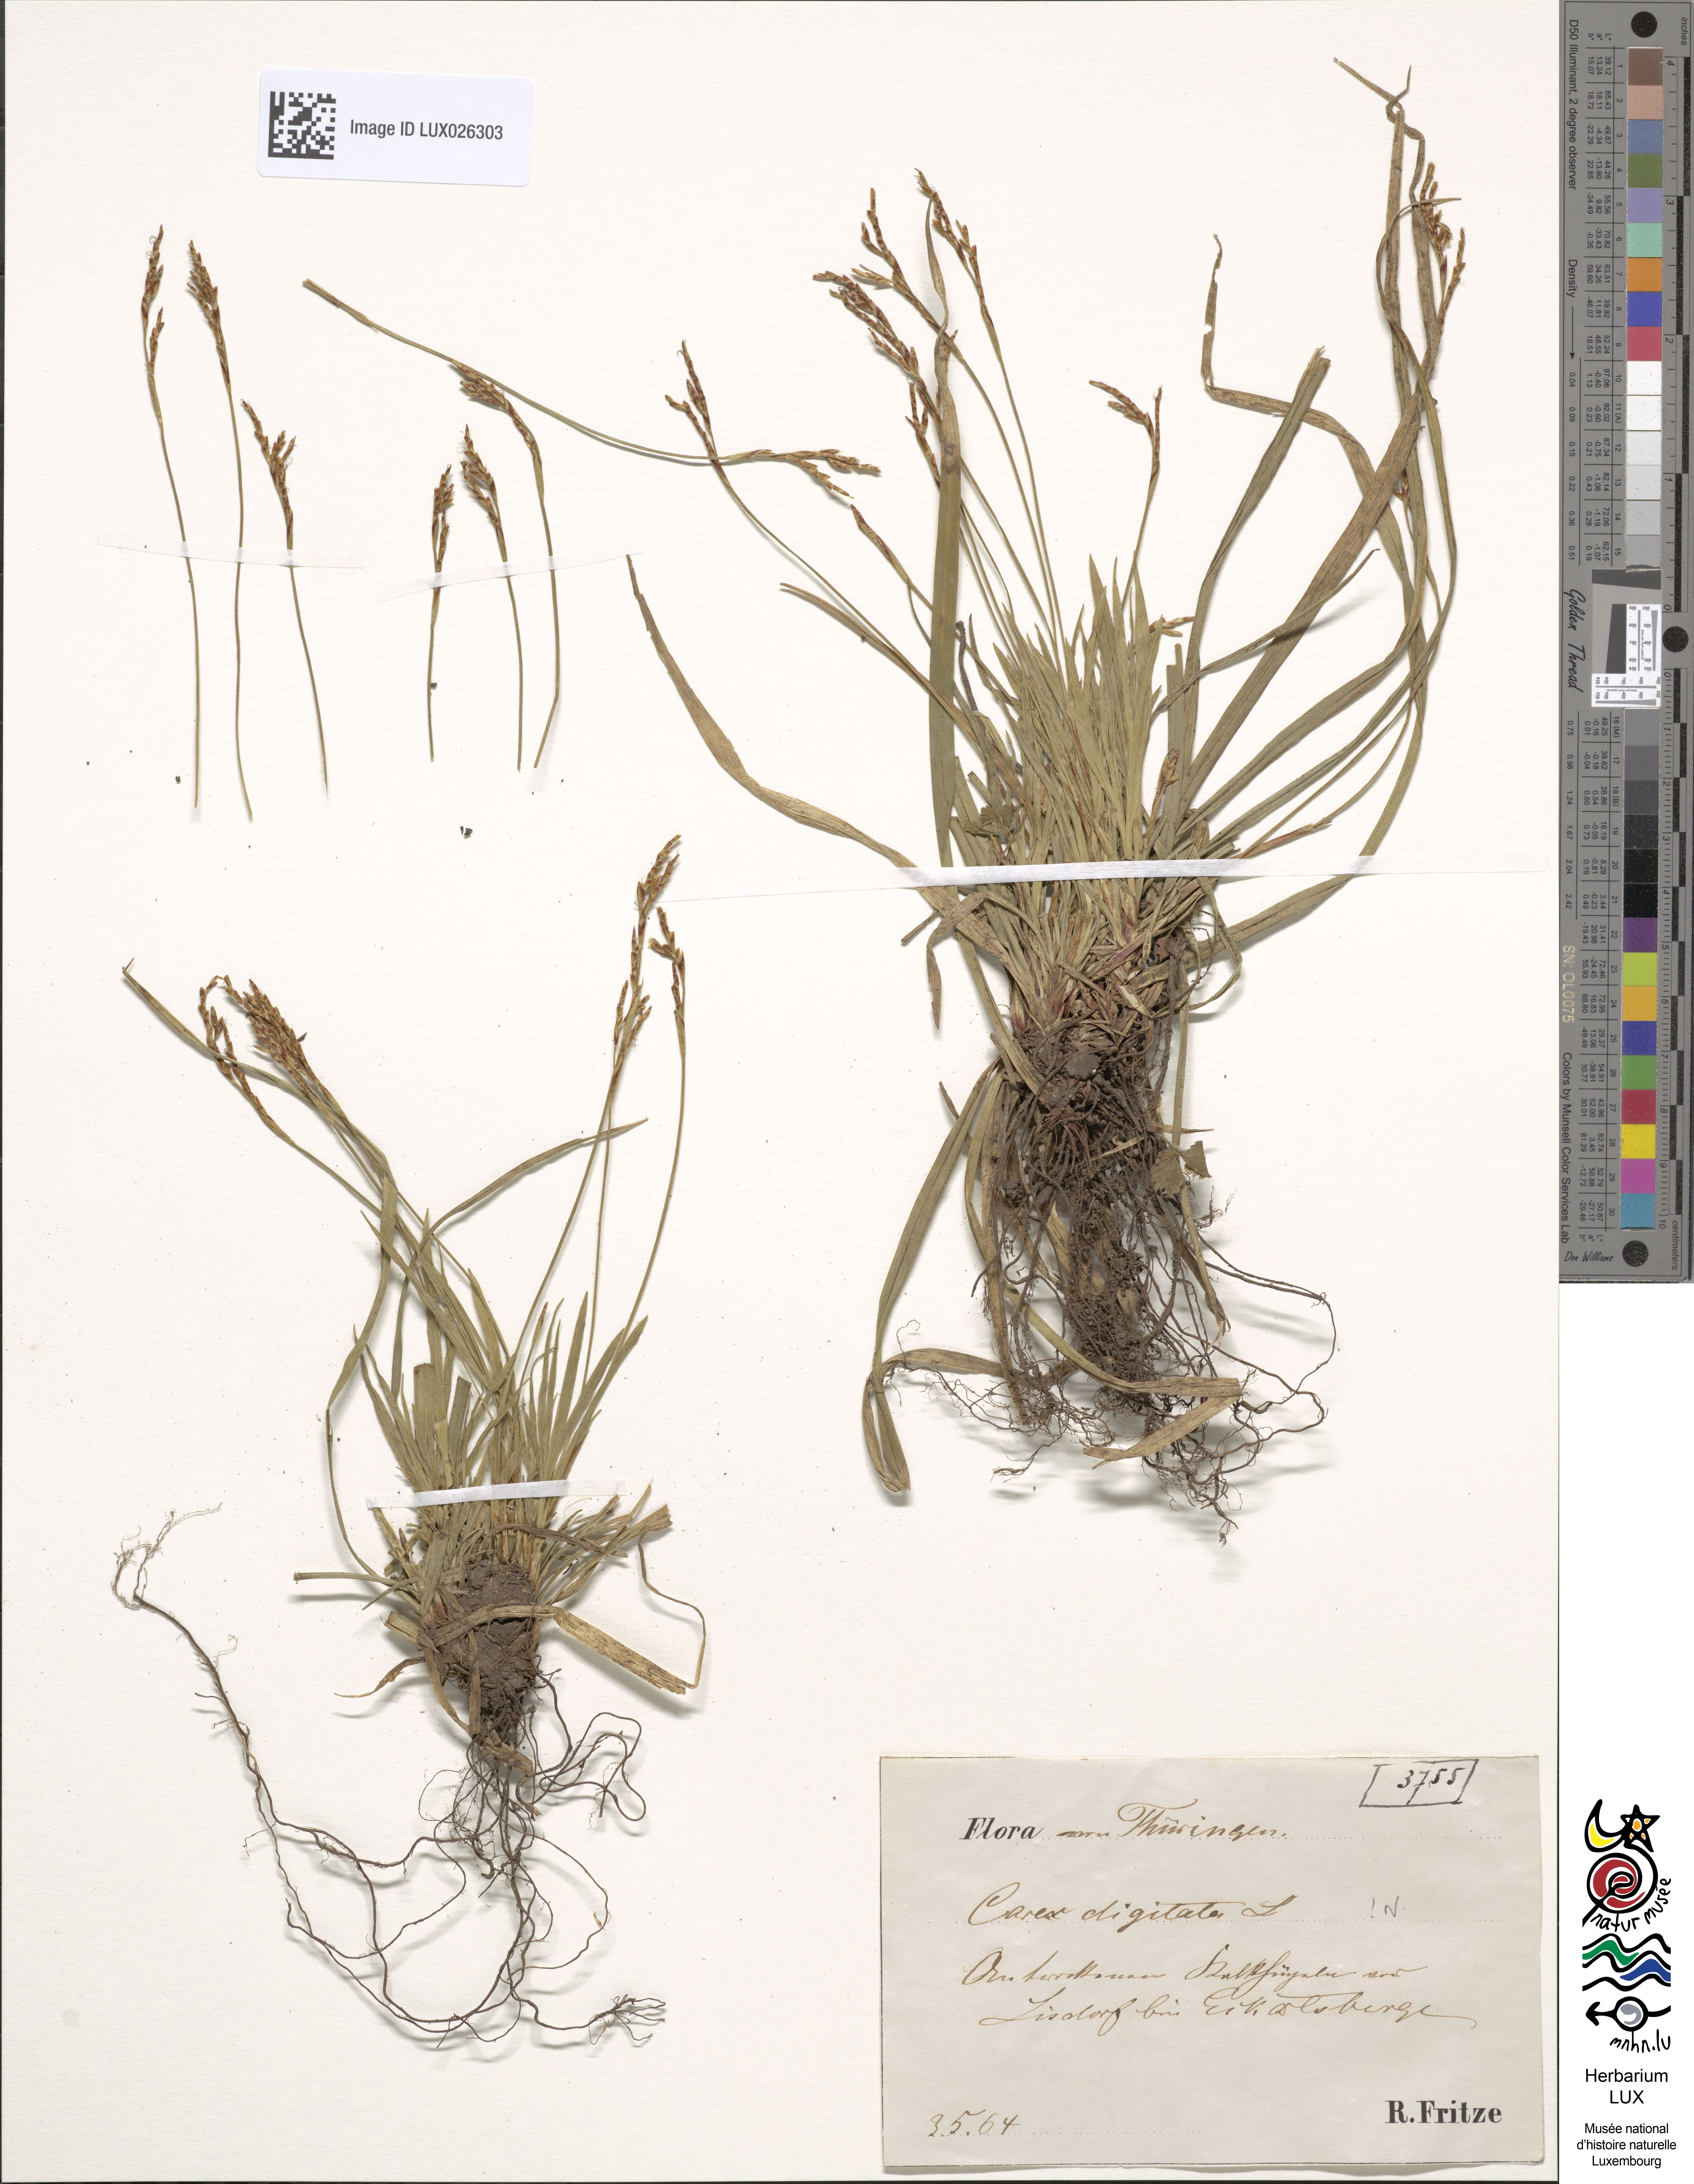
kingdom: Plantae
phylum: Tracheophyta
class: Liliopsida
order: Poales
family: Cyperaceae
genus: Carex
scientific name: Carex digitata
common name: Fingered sedge
